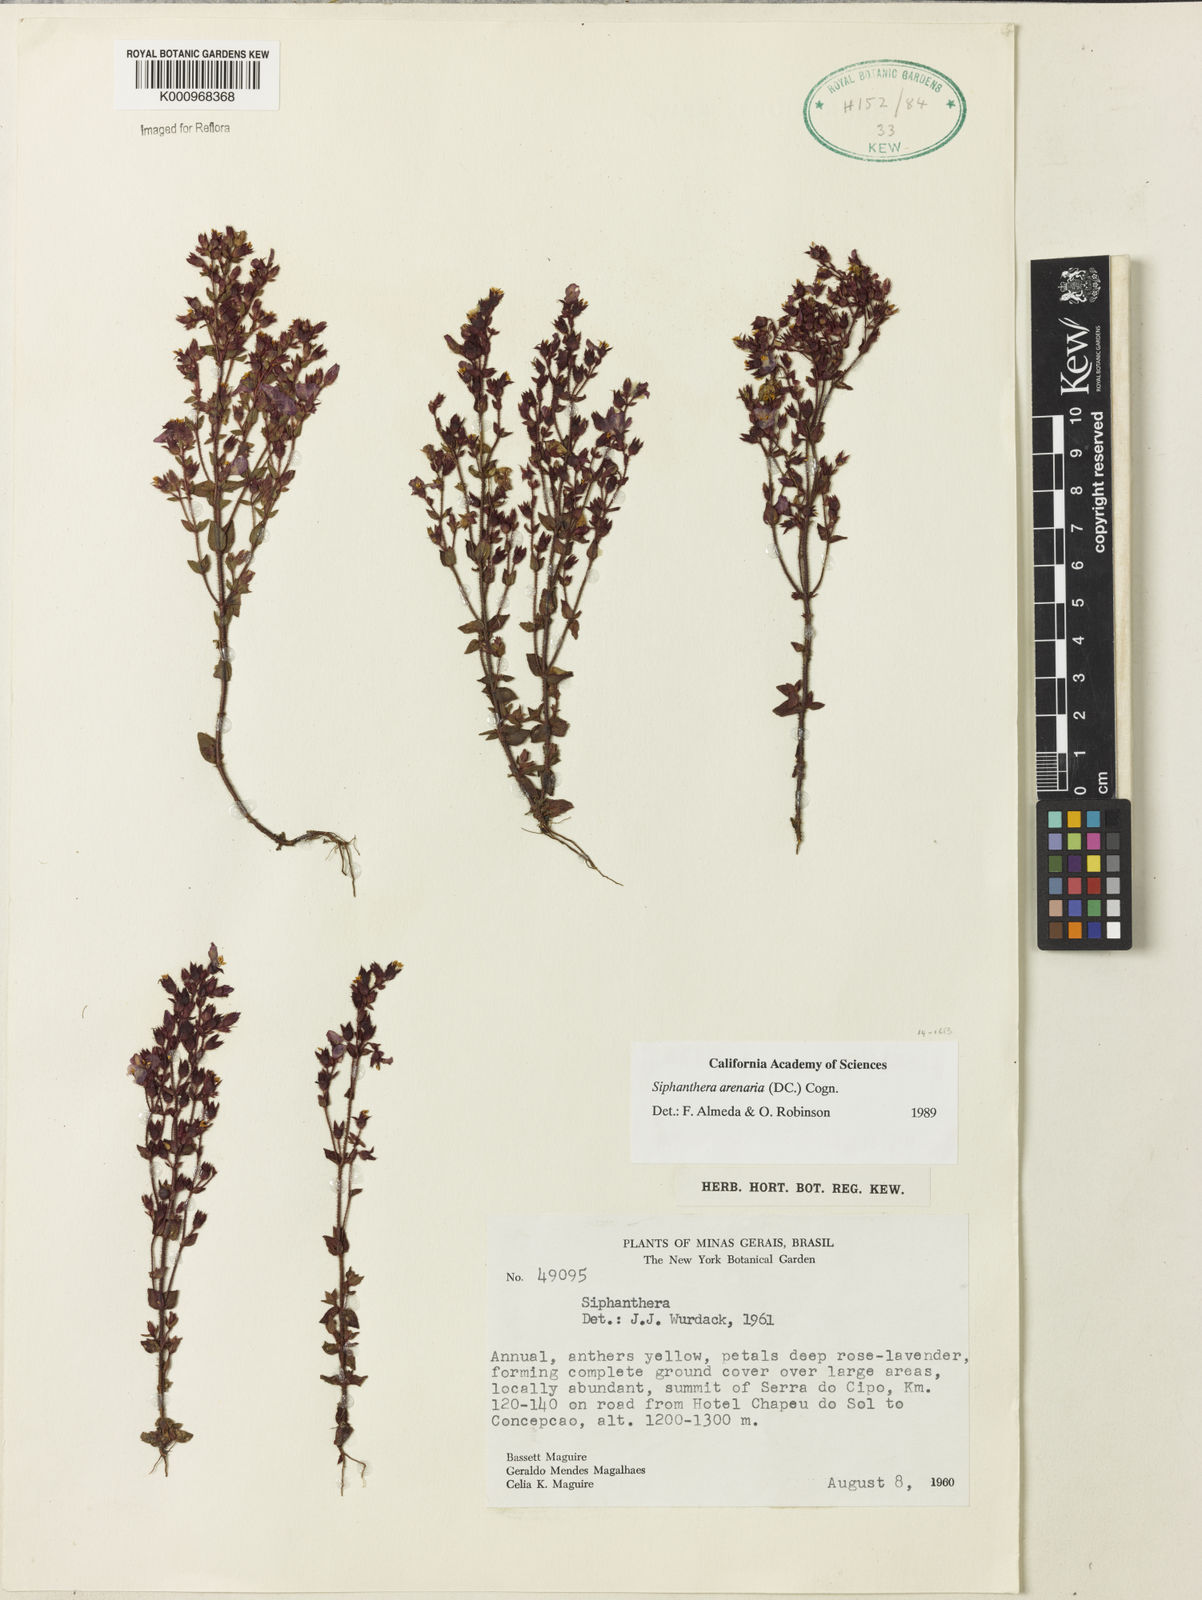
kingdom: Plantae
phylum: Tracheophyta
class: Magnoliopsida
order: Myrtales
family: Melastomataceae
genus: Siphanthera
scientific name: Siphanthera arenaria
